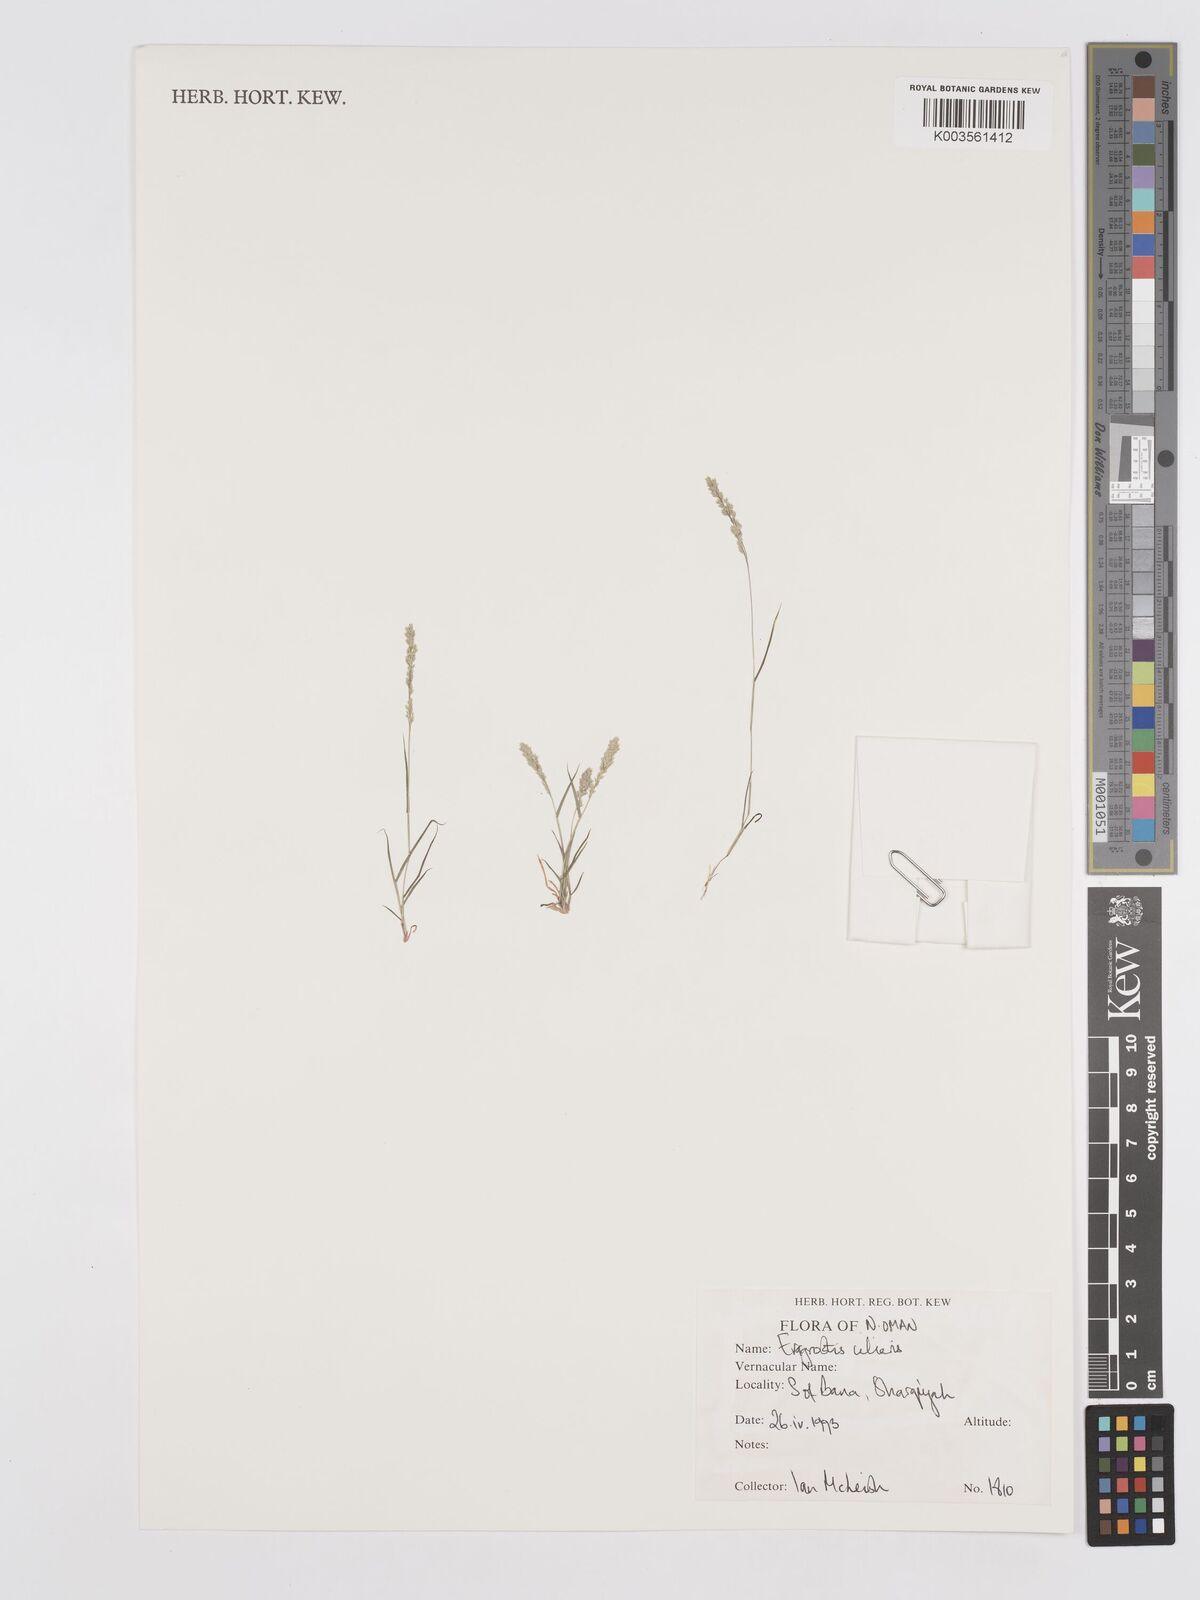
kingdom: Plantae
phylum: Tracheophyta
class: Liliopsida
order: Poales
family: Poaceae
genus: Eragrostis
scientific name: Eragrostis ciliaris
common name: Gophertail lovegrass
